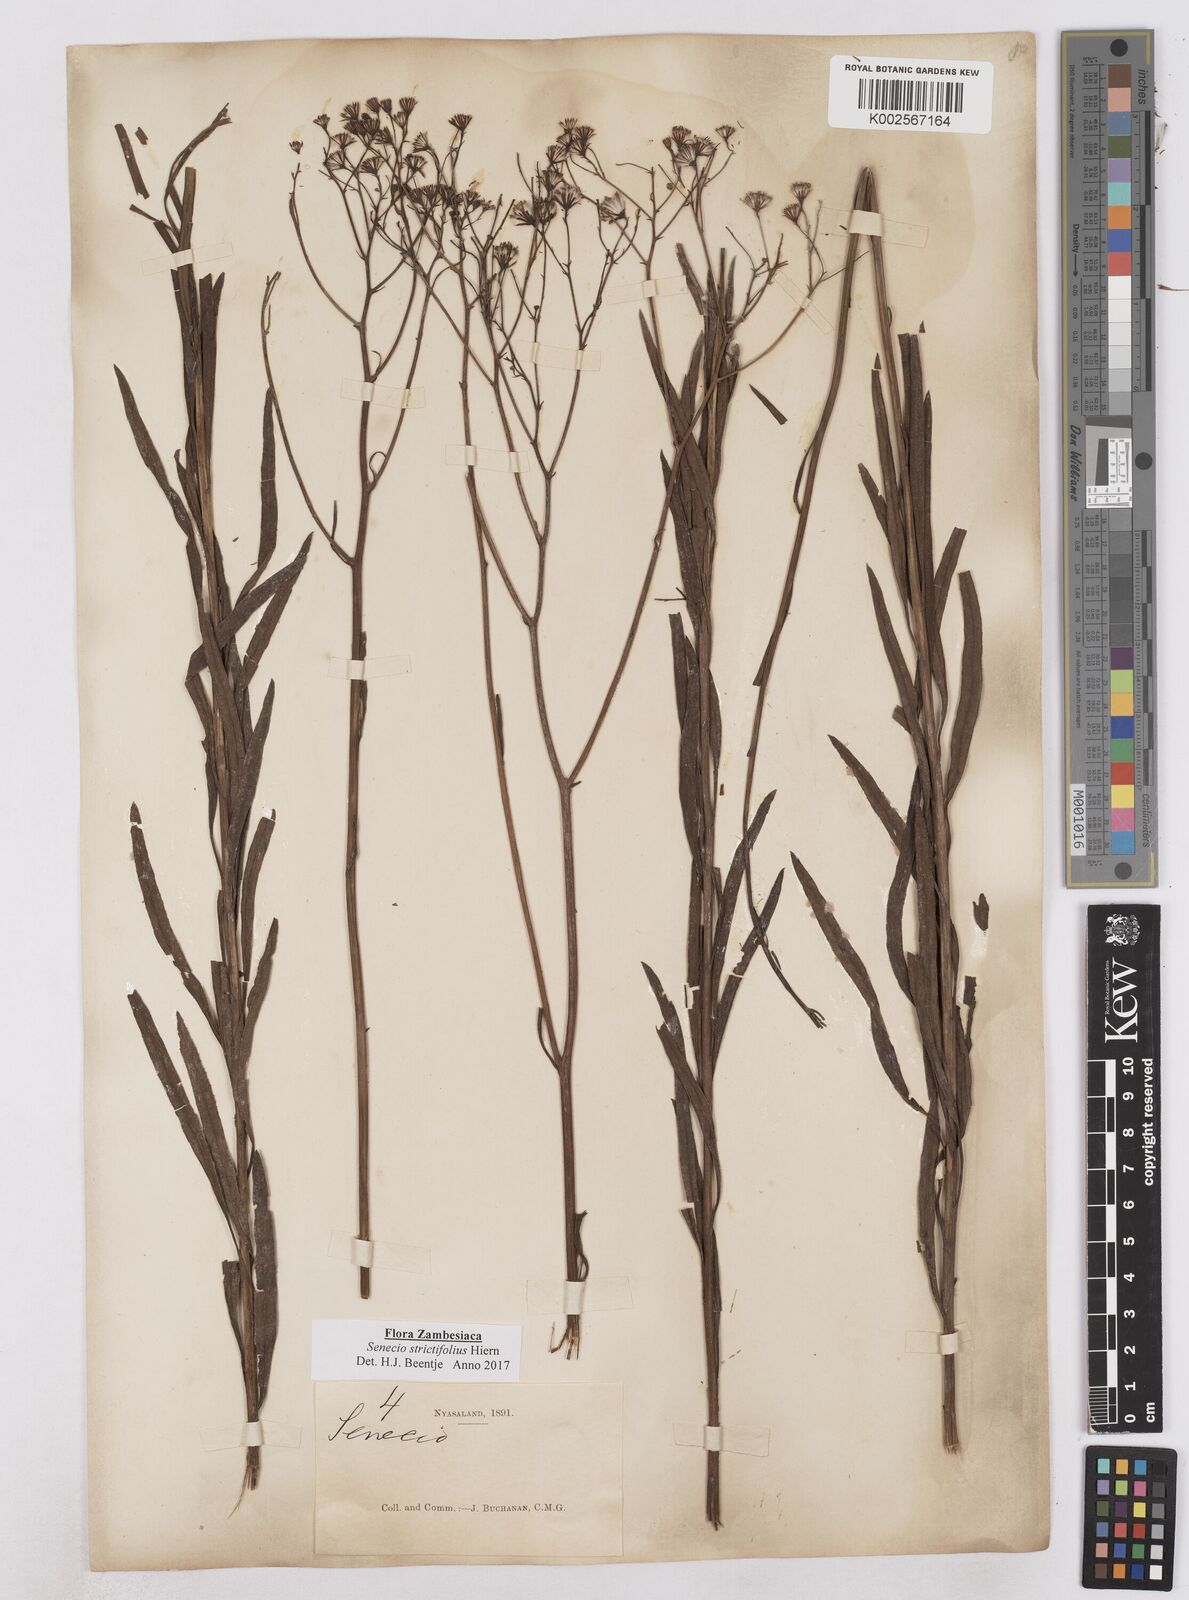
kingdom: Plantae
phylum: Tracheophyta
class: Magnoliopsida
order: Asterales
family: Asteraceae
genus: Senecio
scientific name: Senecio strictifolius
